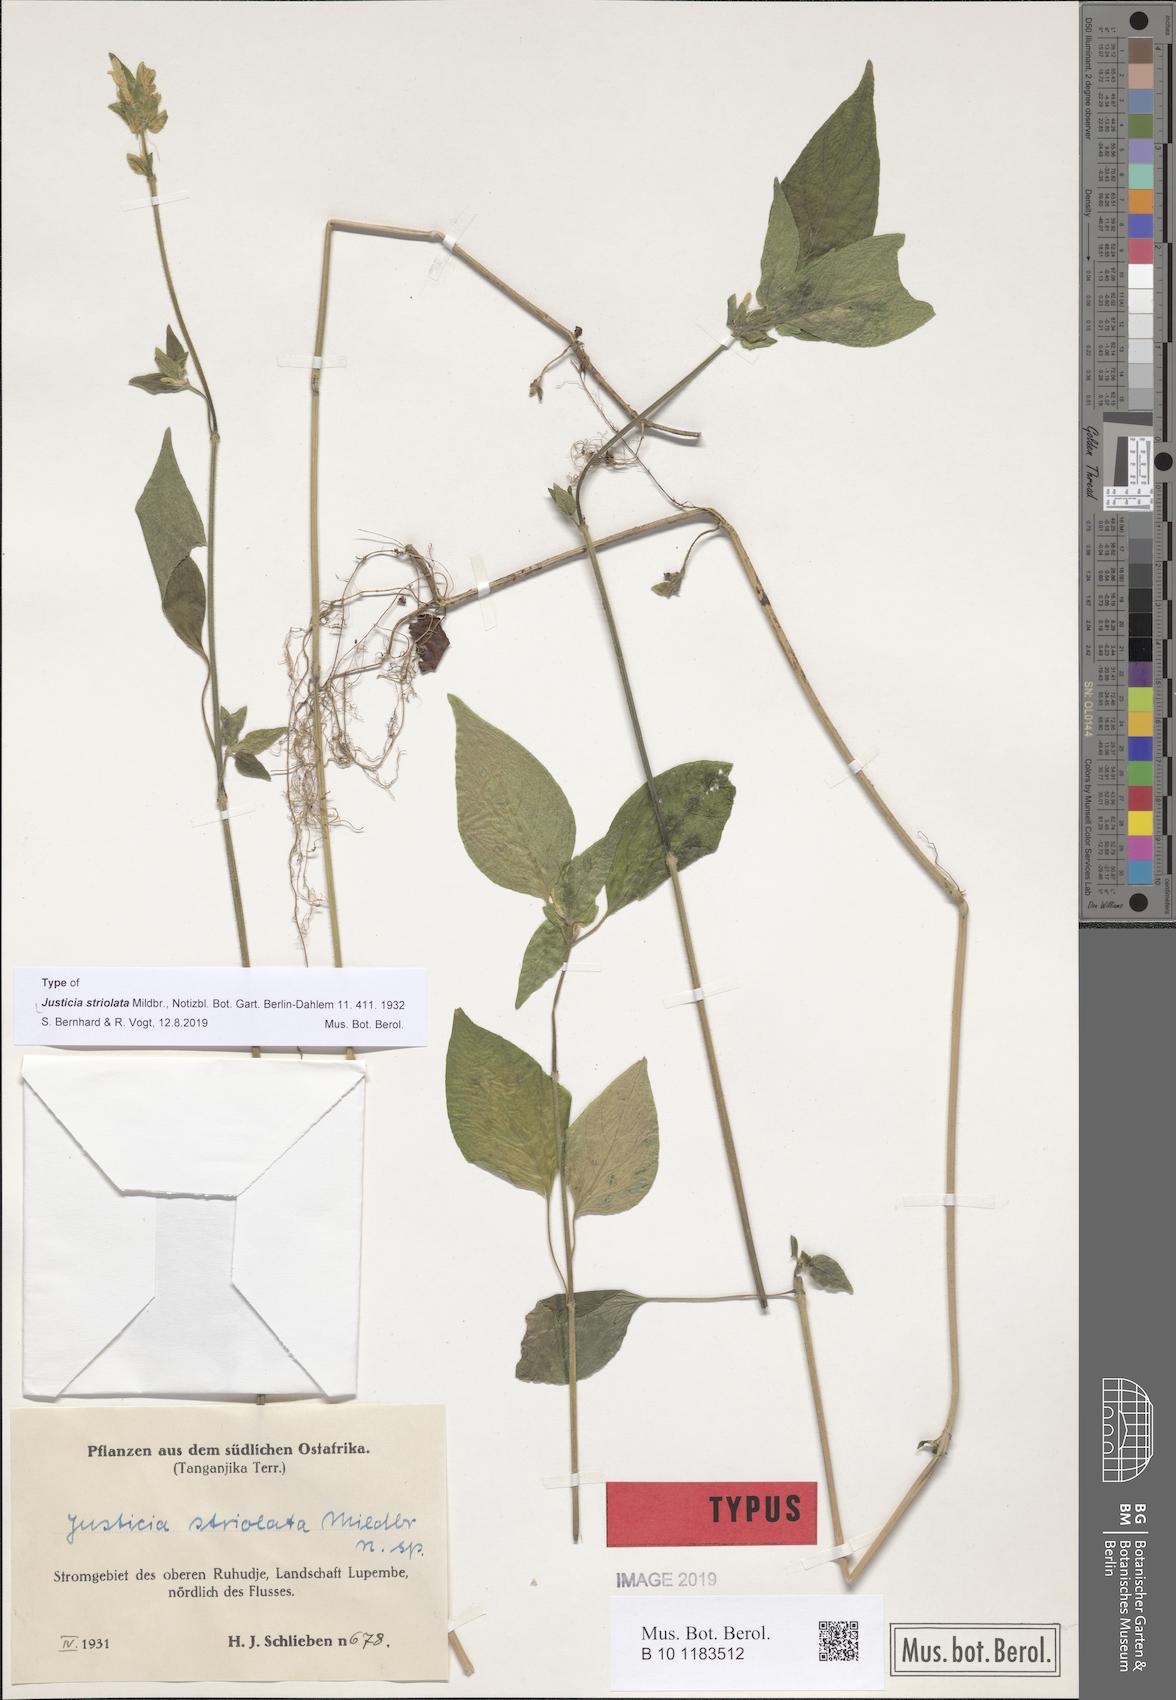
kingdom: Plantae
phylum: Tracheophyta
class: Magnoliopsida
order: Lamiales
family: Acanthaceae
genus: Justicia
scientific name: Justicia striolata
